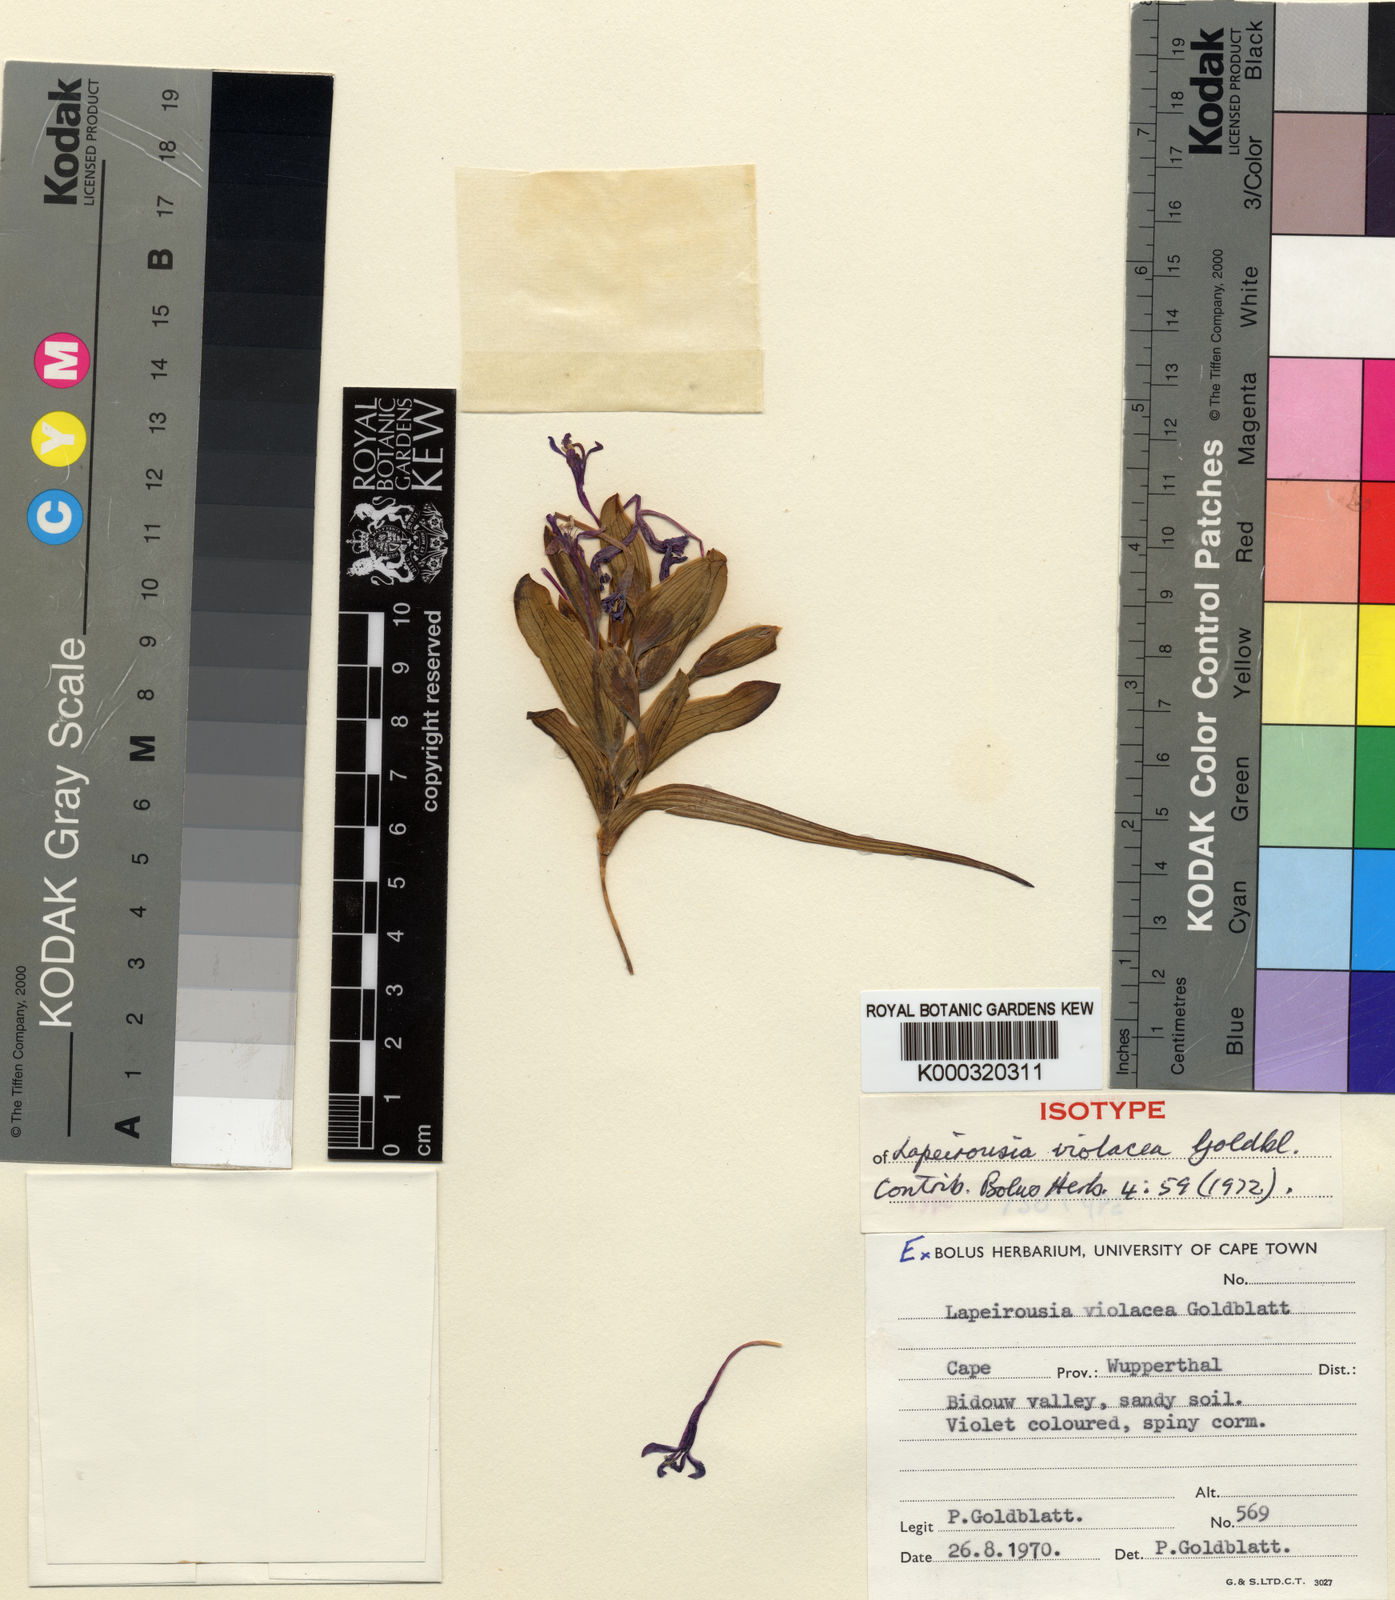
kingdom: Plantae
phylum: Tracheophyta
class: Liliopsida
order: Asparagales
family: Iridaceae
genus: Lapeirousia
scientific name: Lapeirousia violacea
